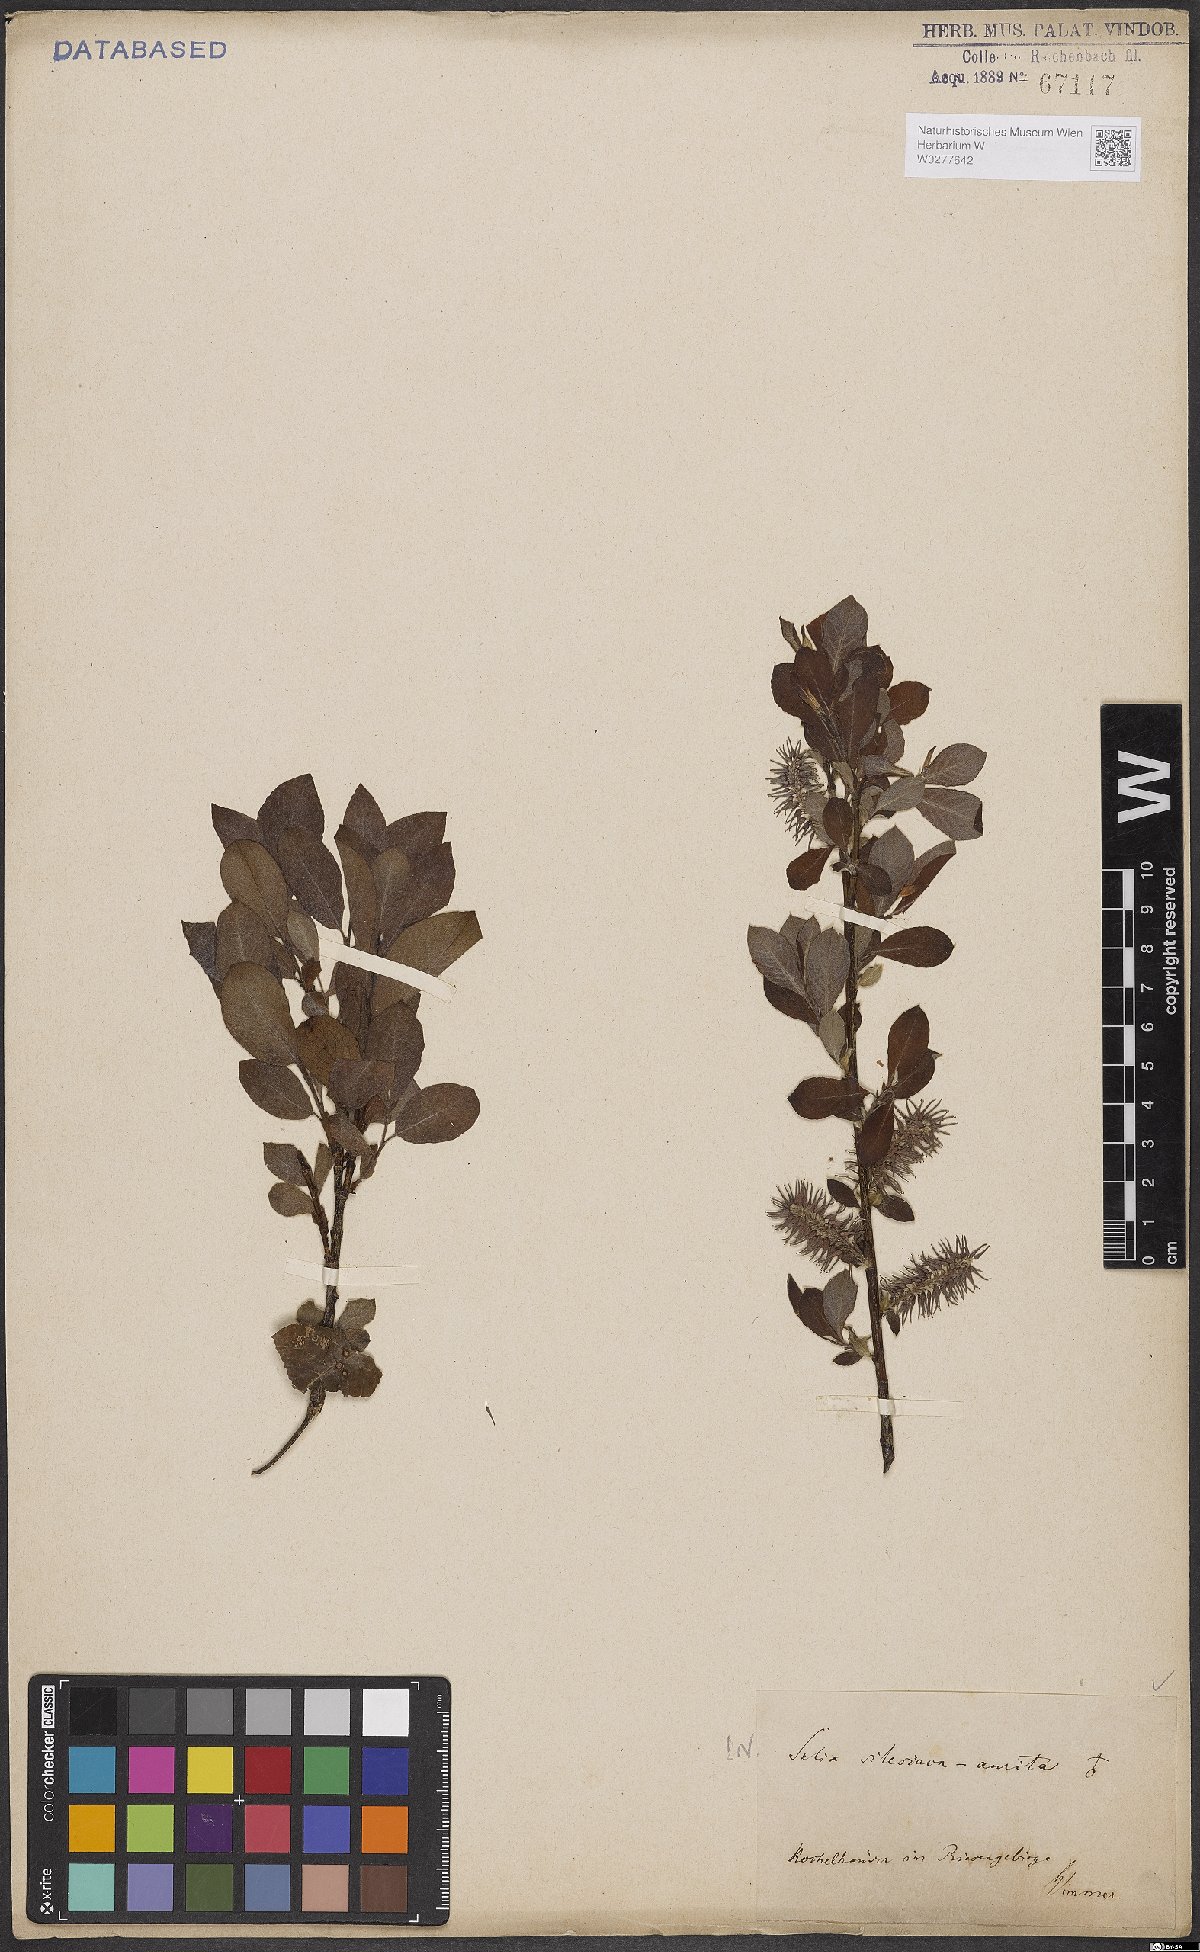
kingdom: Plantae
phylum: Tracheophyta
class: Magnoliopsida
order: Malpighiales
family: Salicaceae
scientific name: Salicaceae
